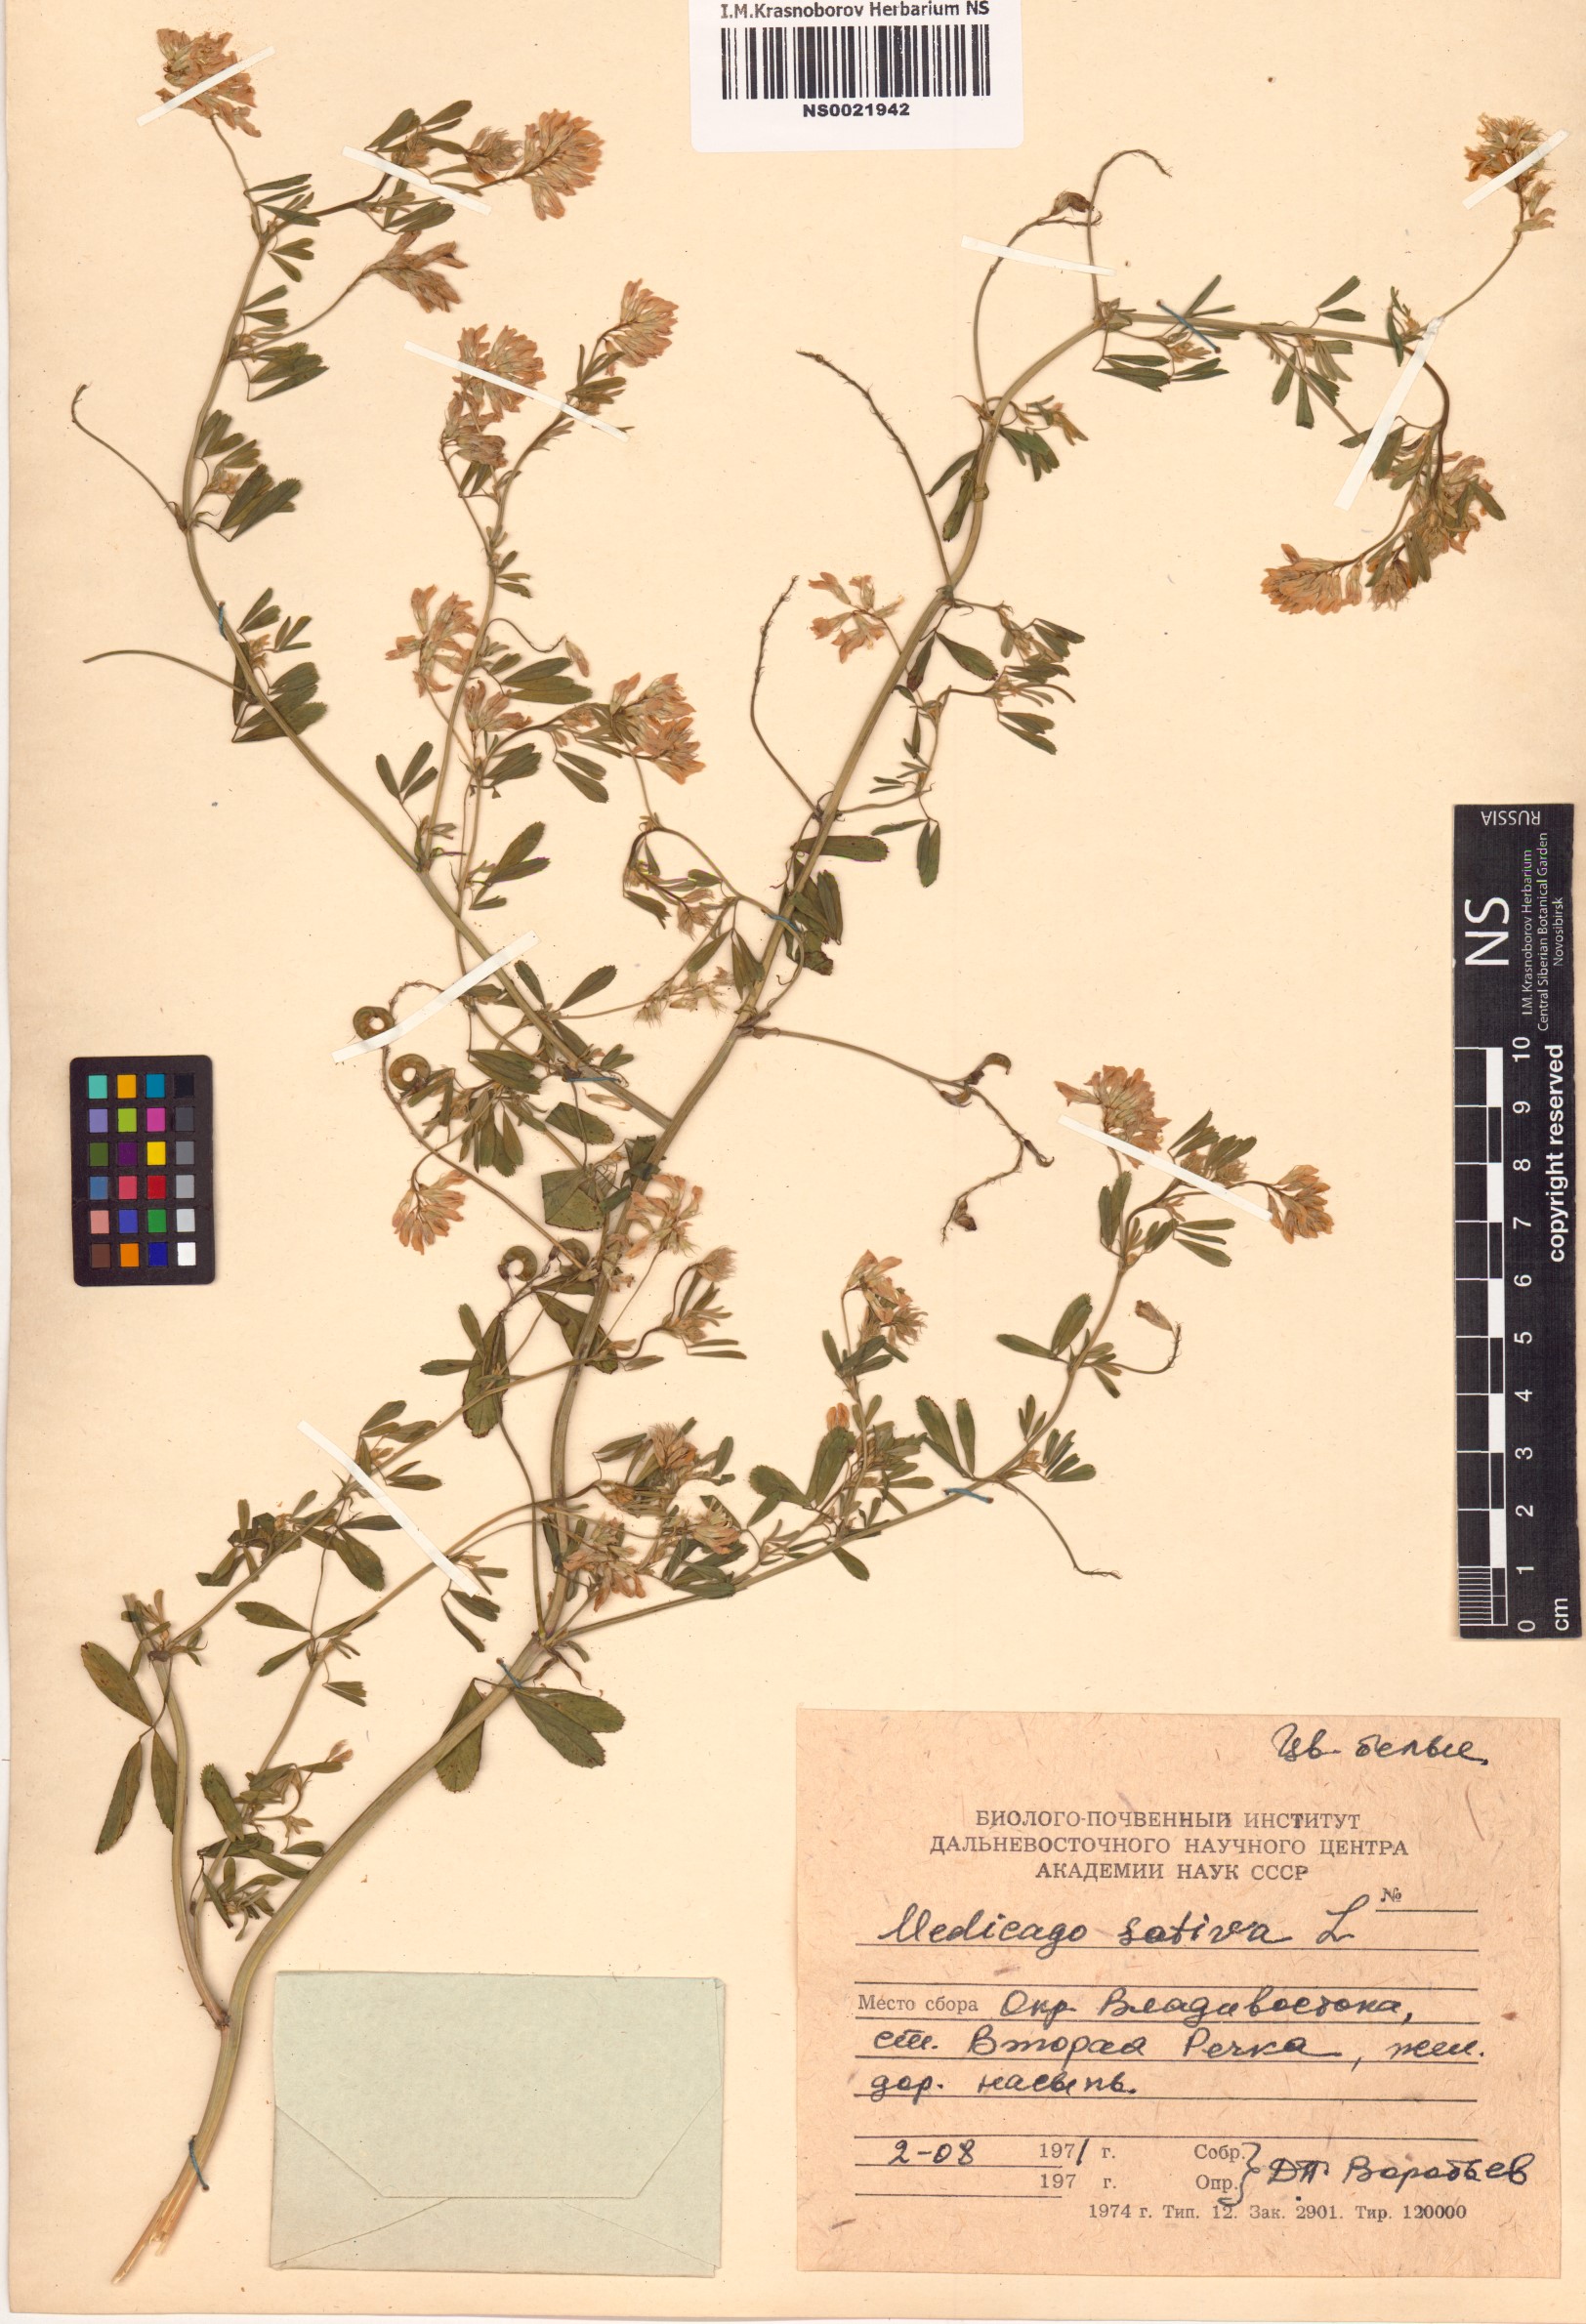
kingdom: Plantae
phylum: Tracheophyta
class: Magnoliopsida
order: Fabales
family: Fabaceae
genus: Medicago
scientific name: Medicago sativa
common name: Alfalfa
